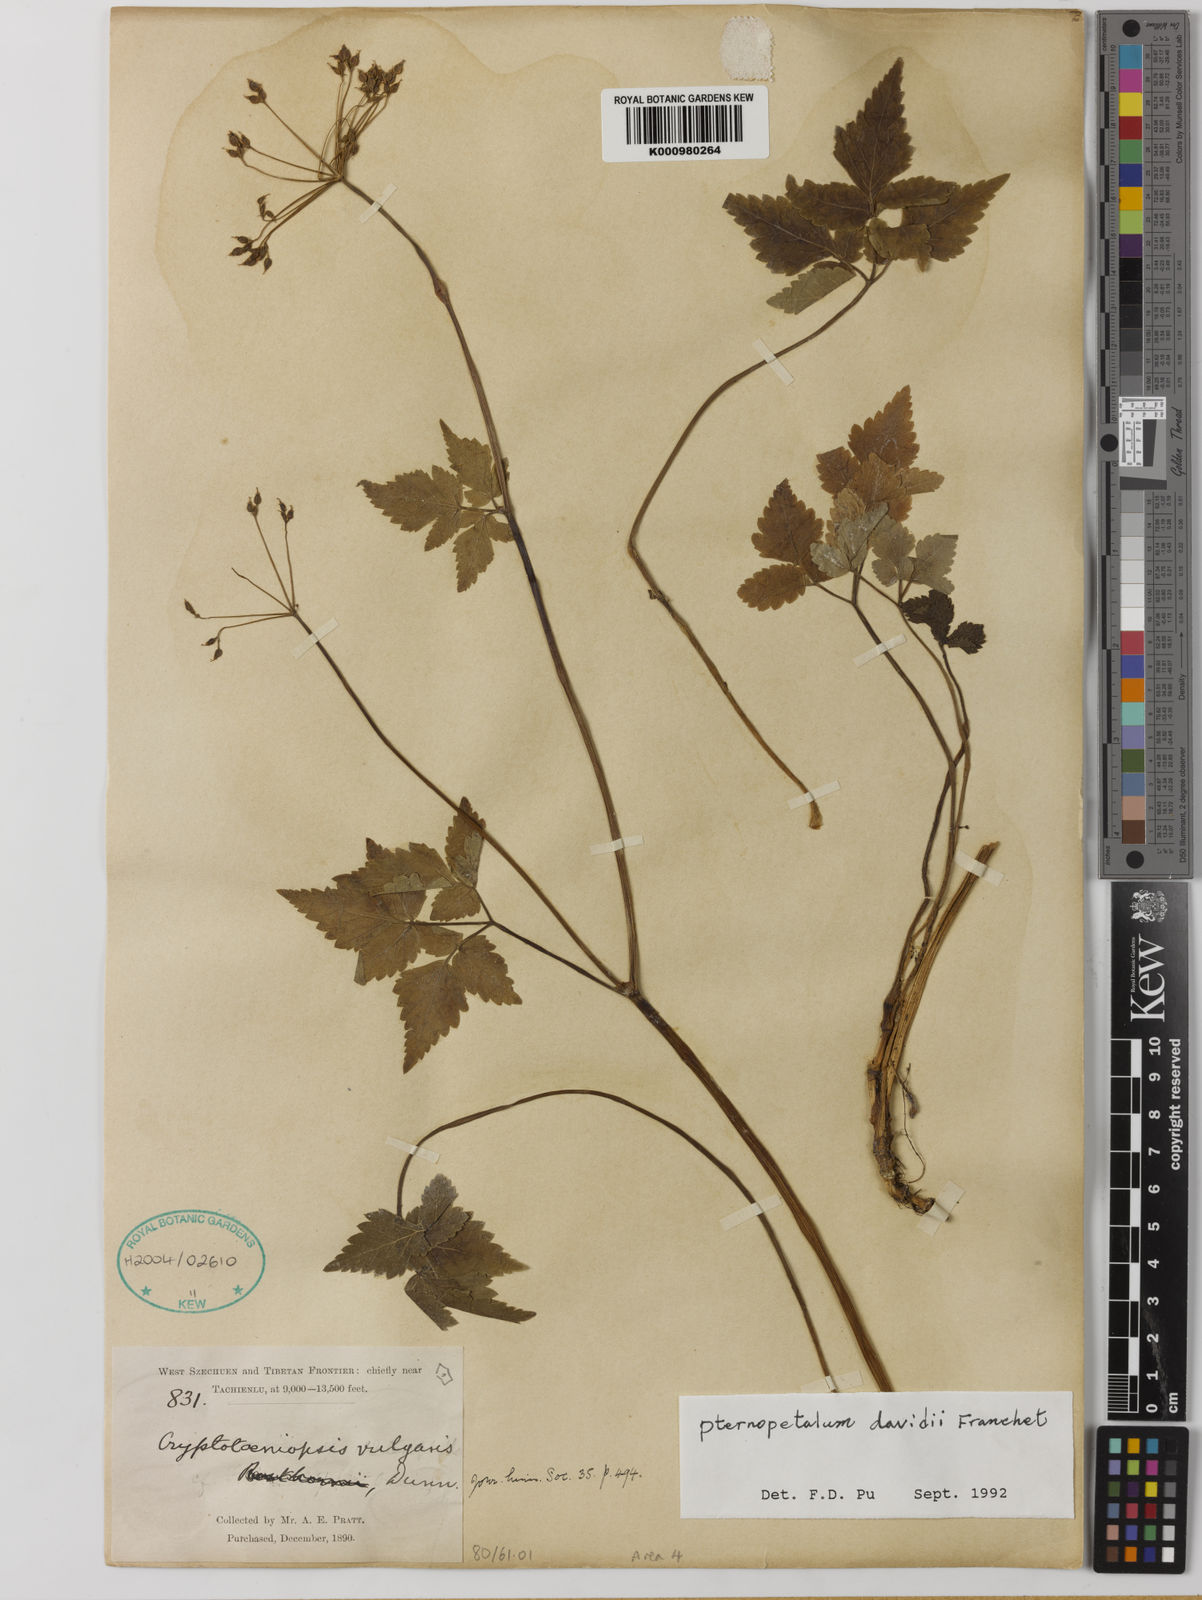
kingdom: Plantae
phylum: Tracheophyta
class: Magnoliopsida
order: Apiales
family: Apiaceae
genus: Pternopetalum
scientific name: Pternopetalum davidi
